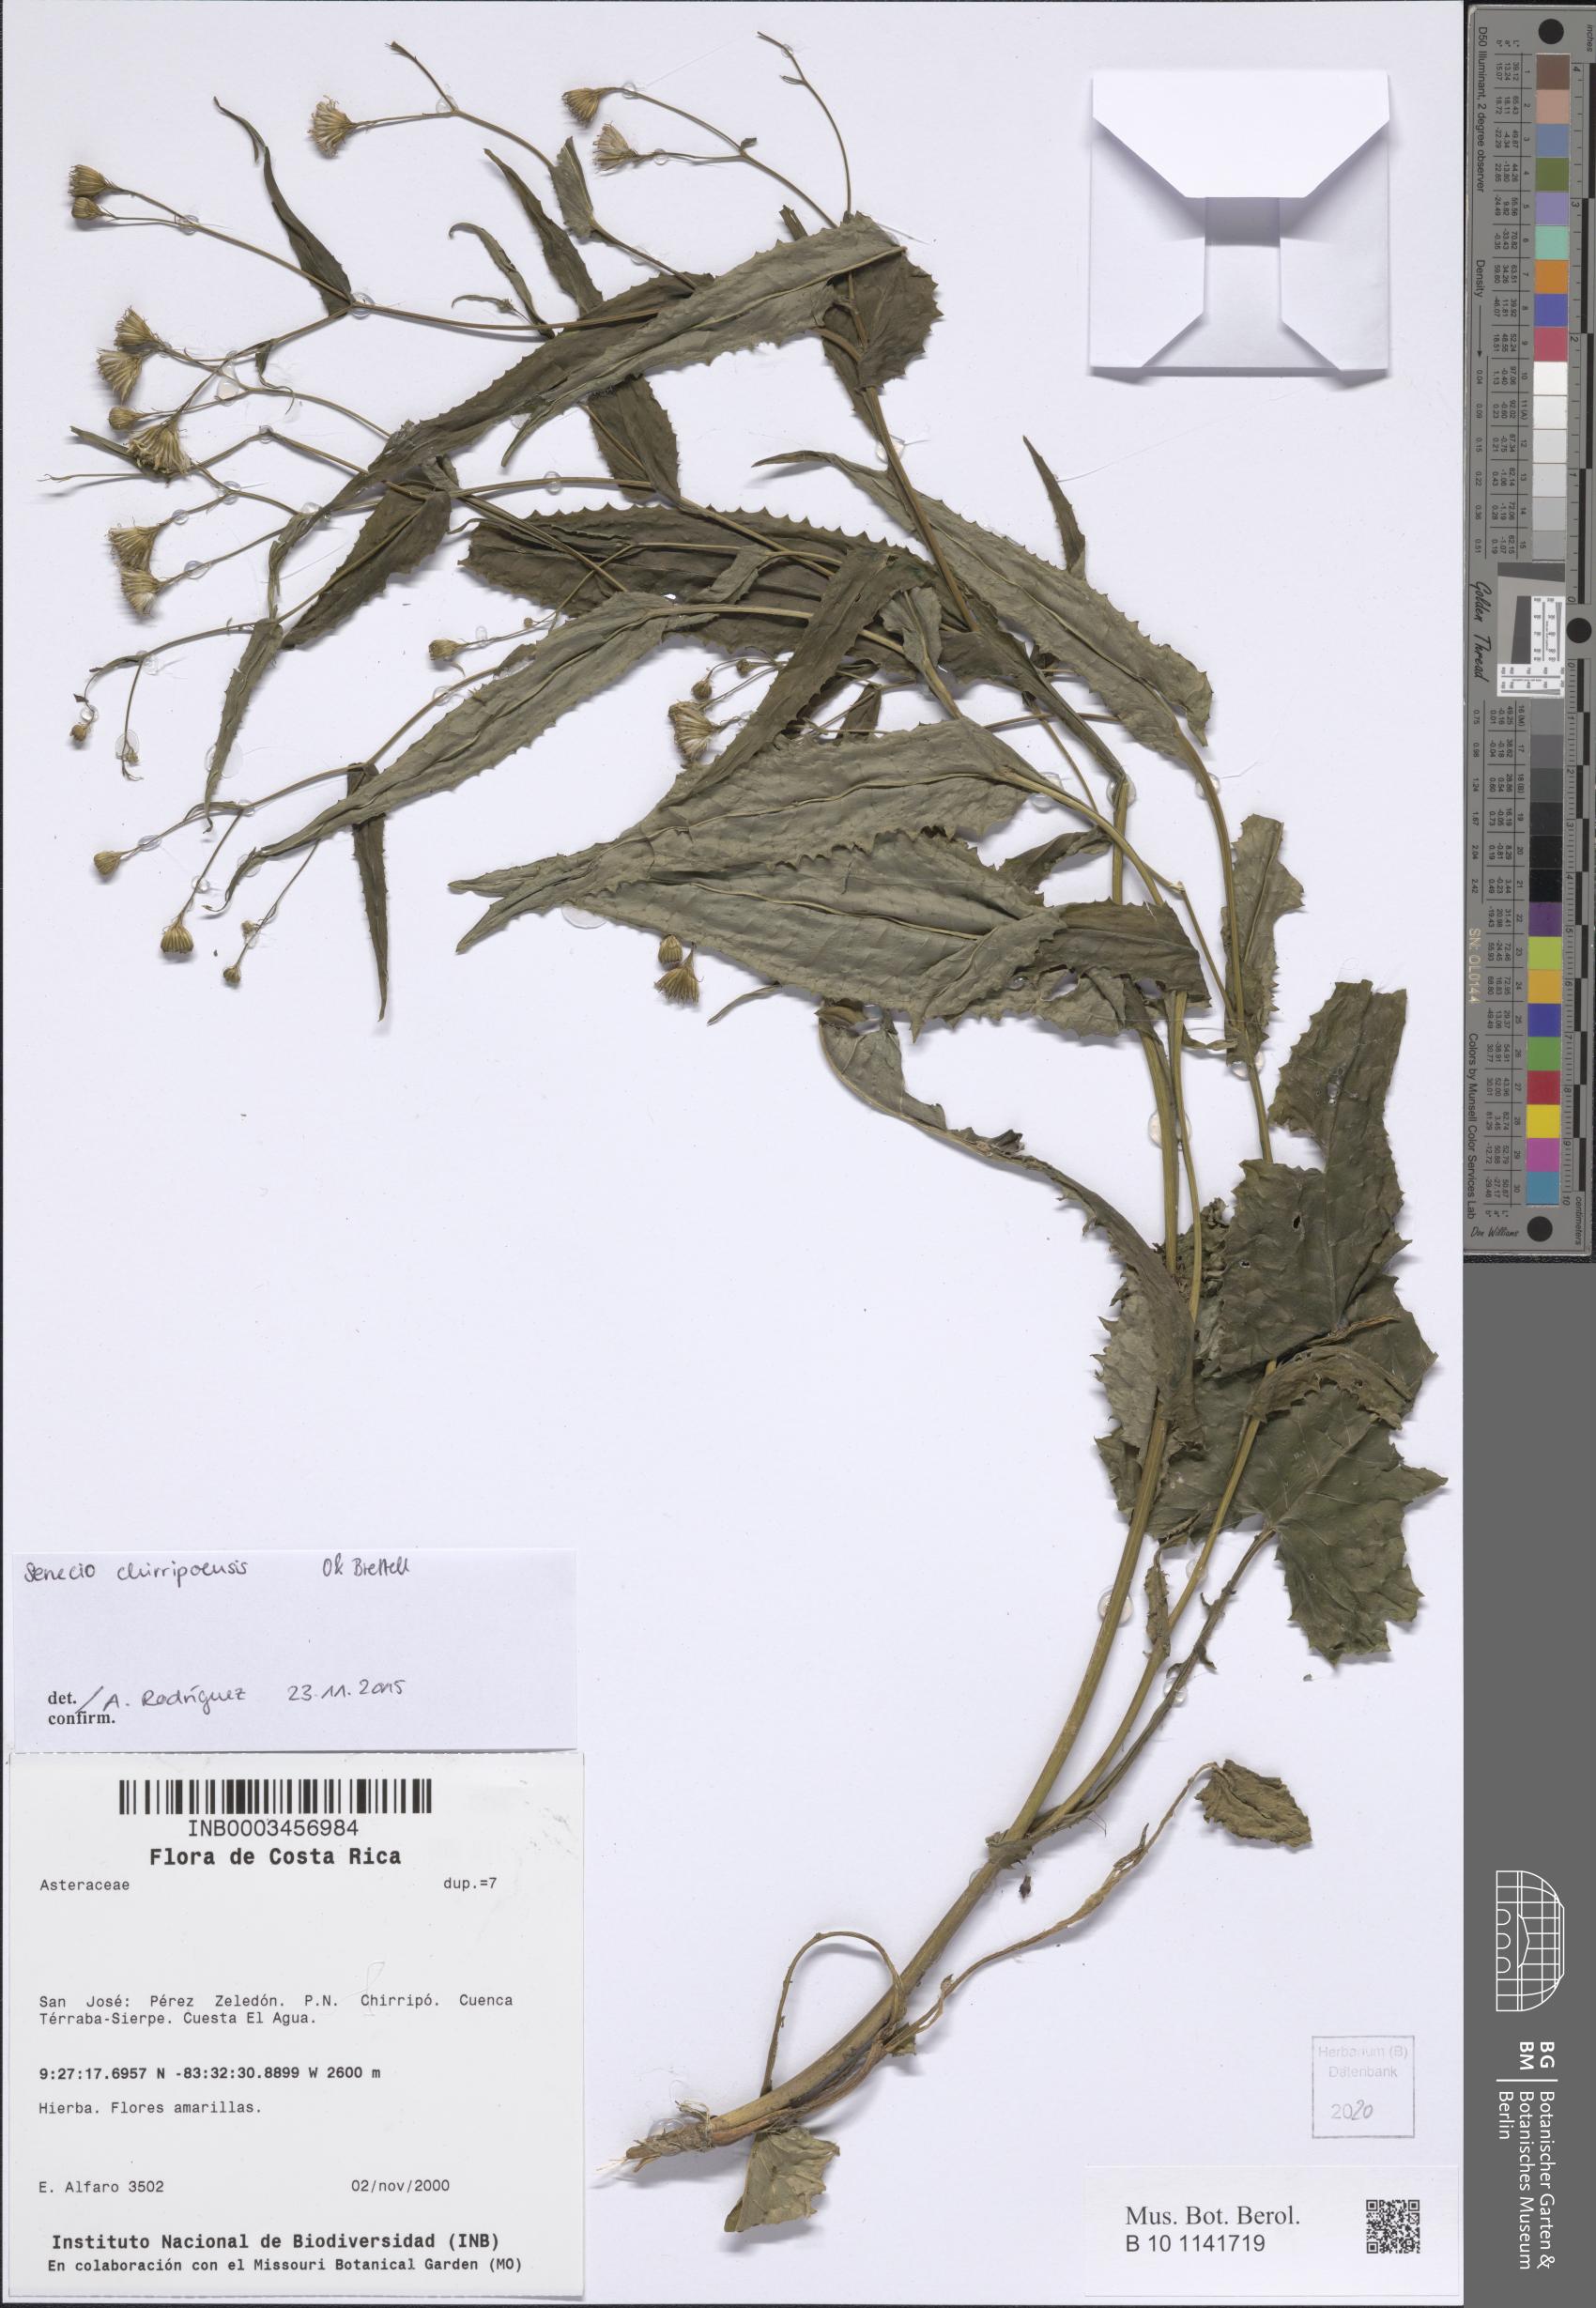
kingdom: Plantae
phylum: Tracheophyta
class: Magnoliopsida
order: Asterales
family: Asteraceae
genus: Senecio
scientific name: Senecio mirus
